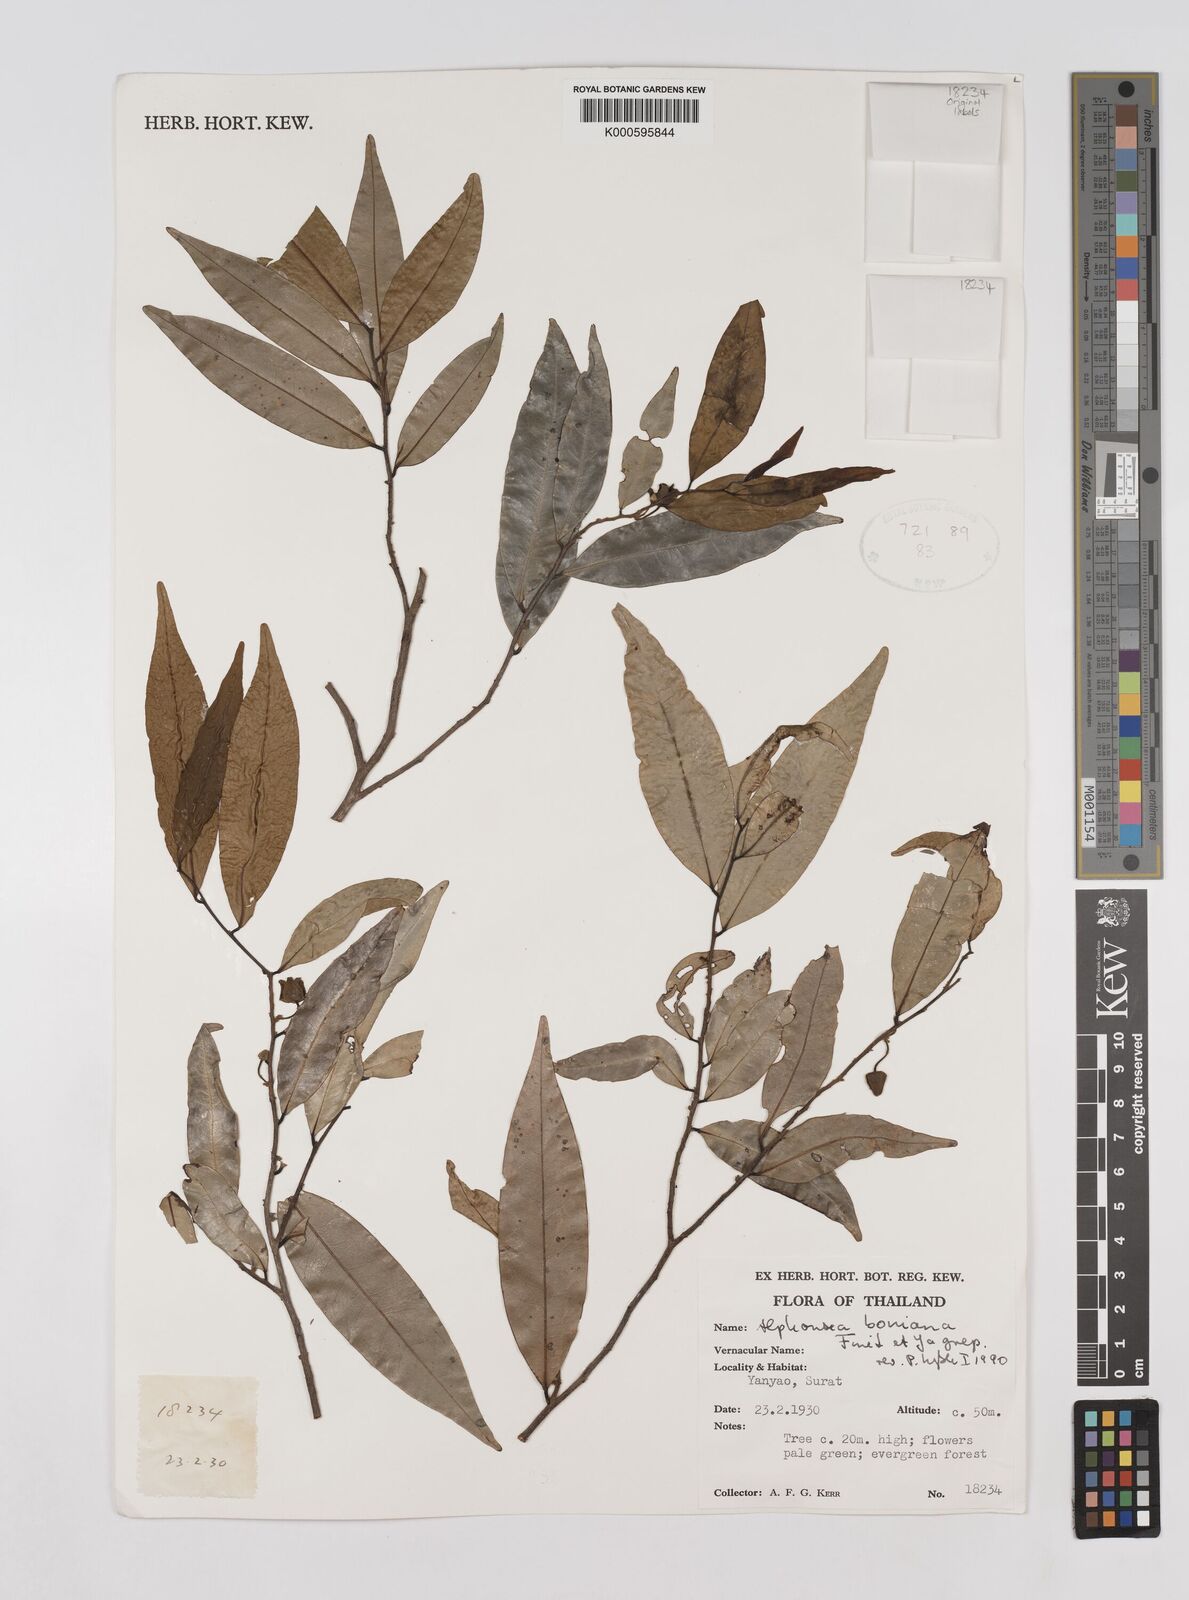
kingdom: Plantae
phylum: Tracheophyta
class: Magnoliopsida
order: Magnoliales
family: Annonaceae
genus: Alphonsea
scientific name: Alphonsea boniana
